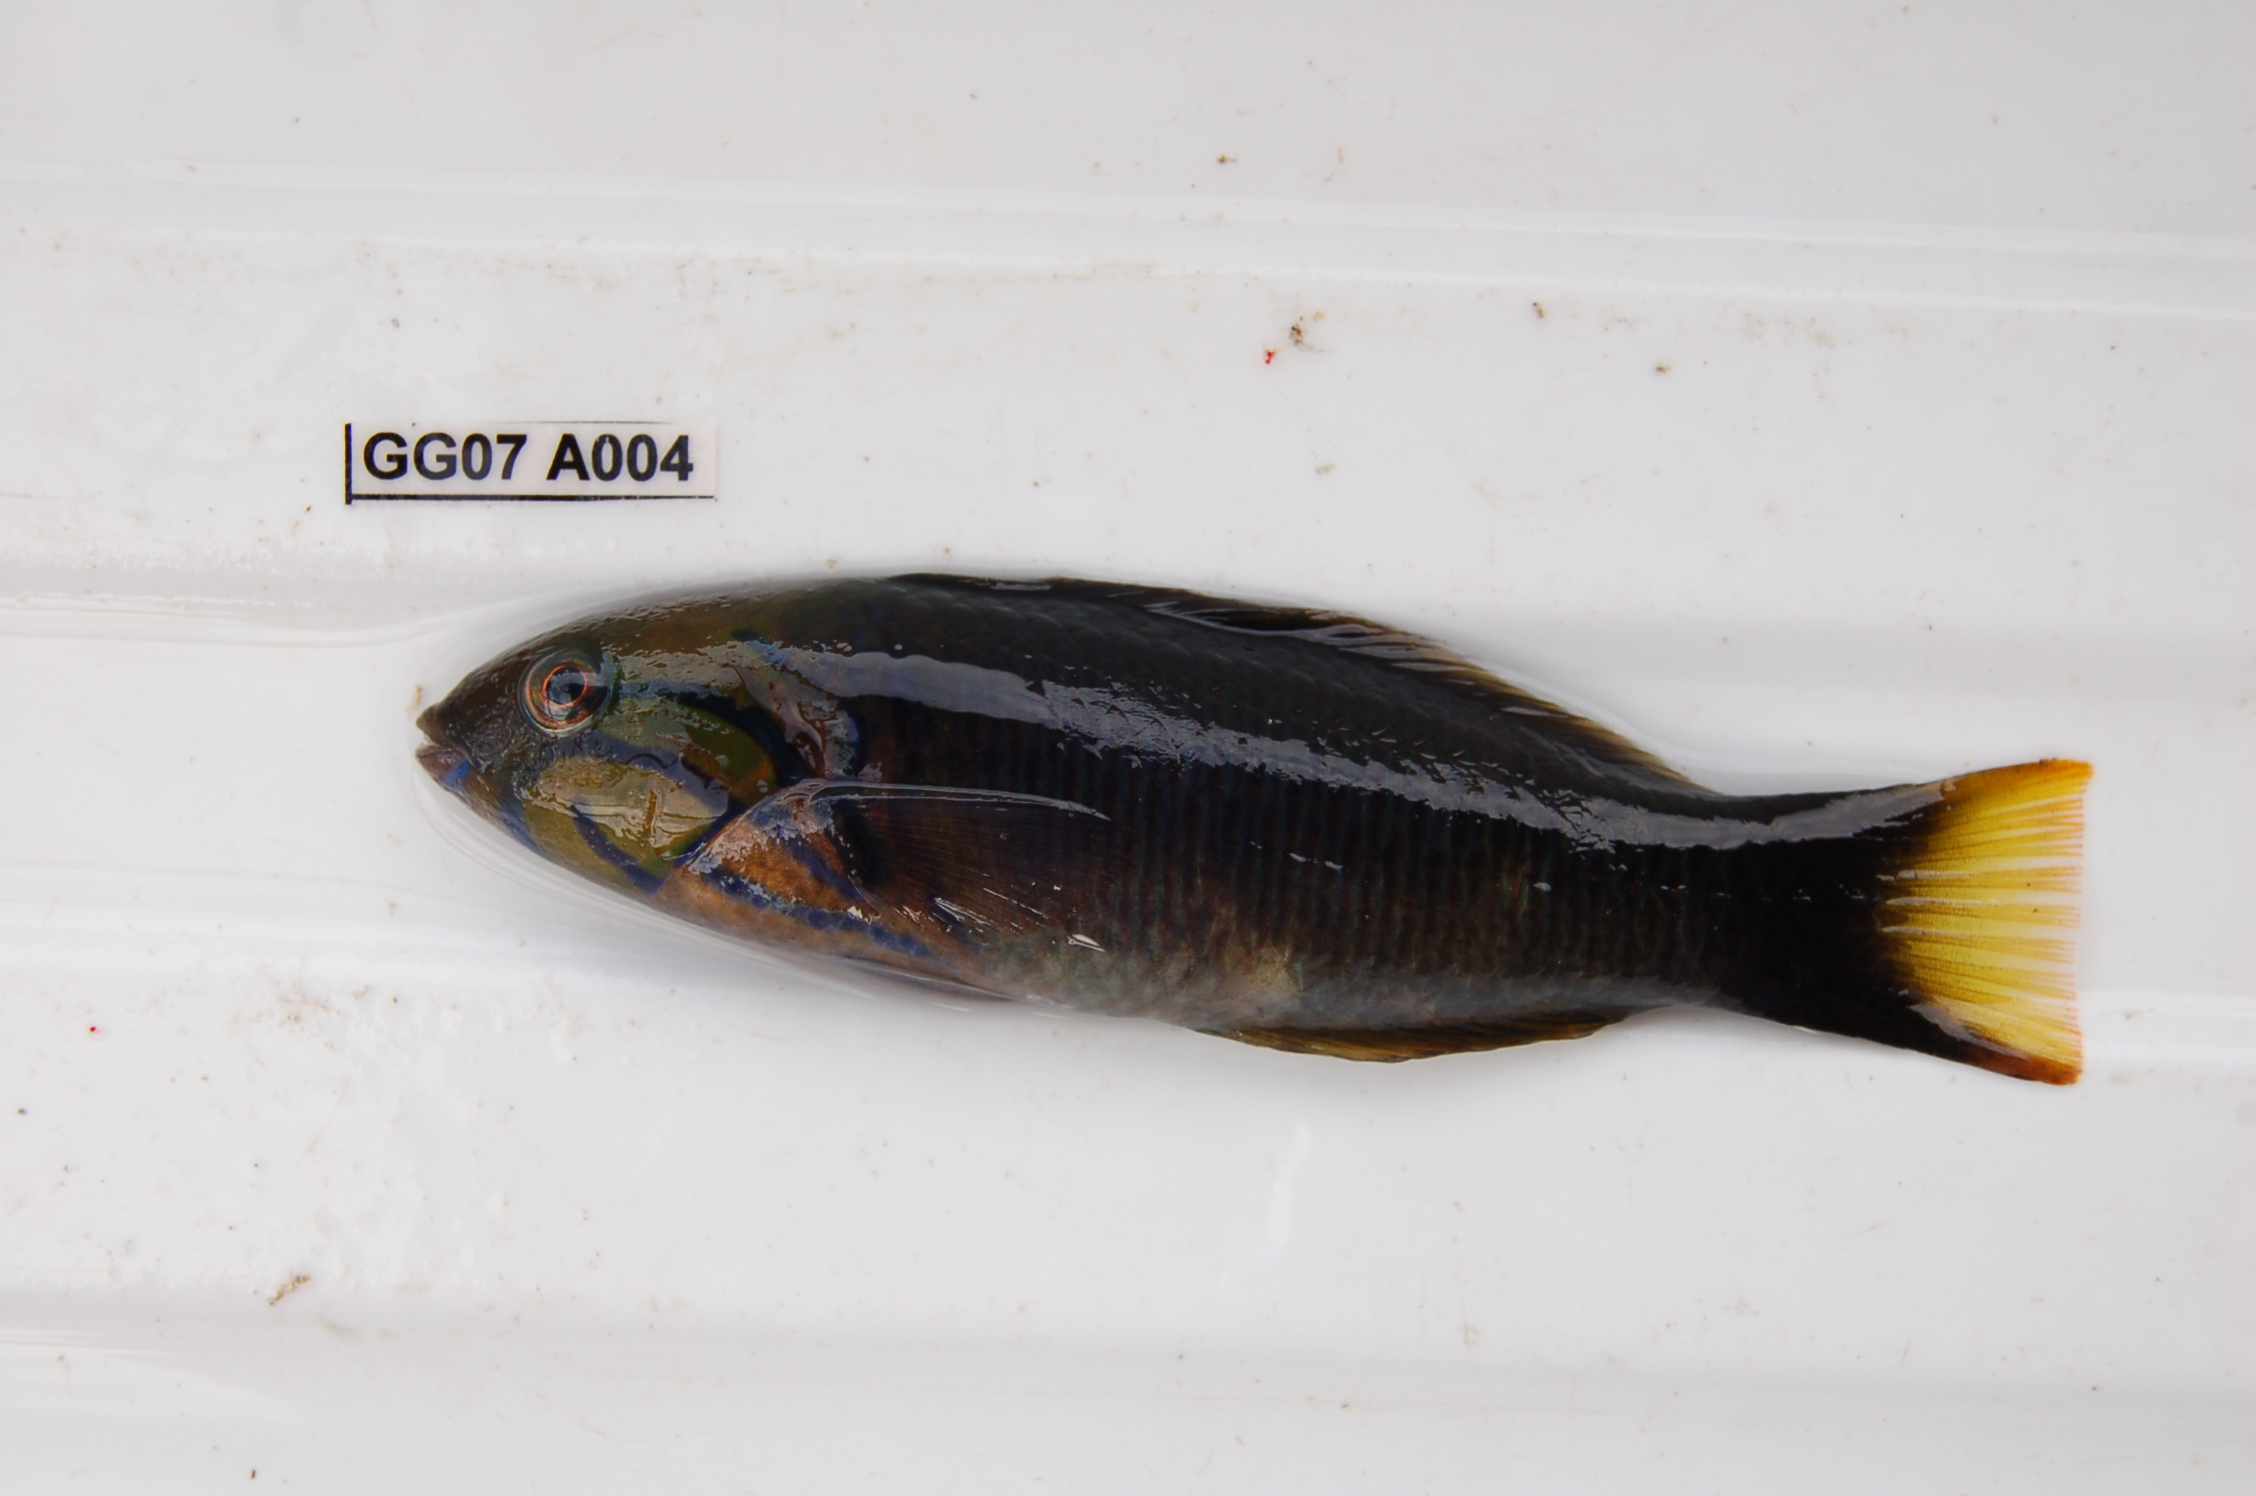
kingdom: Animalia
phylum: Chordata
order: Perciformes
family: Labridae
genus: Thalassoma
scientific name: Thalassoma hebraicum
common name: Goldbar wrasse
